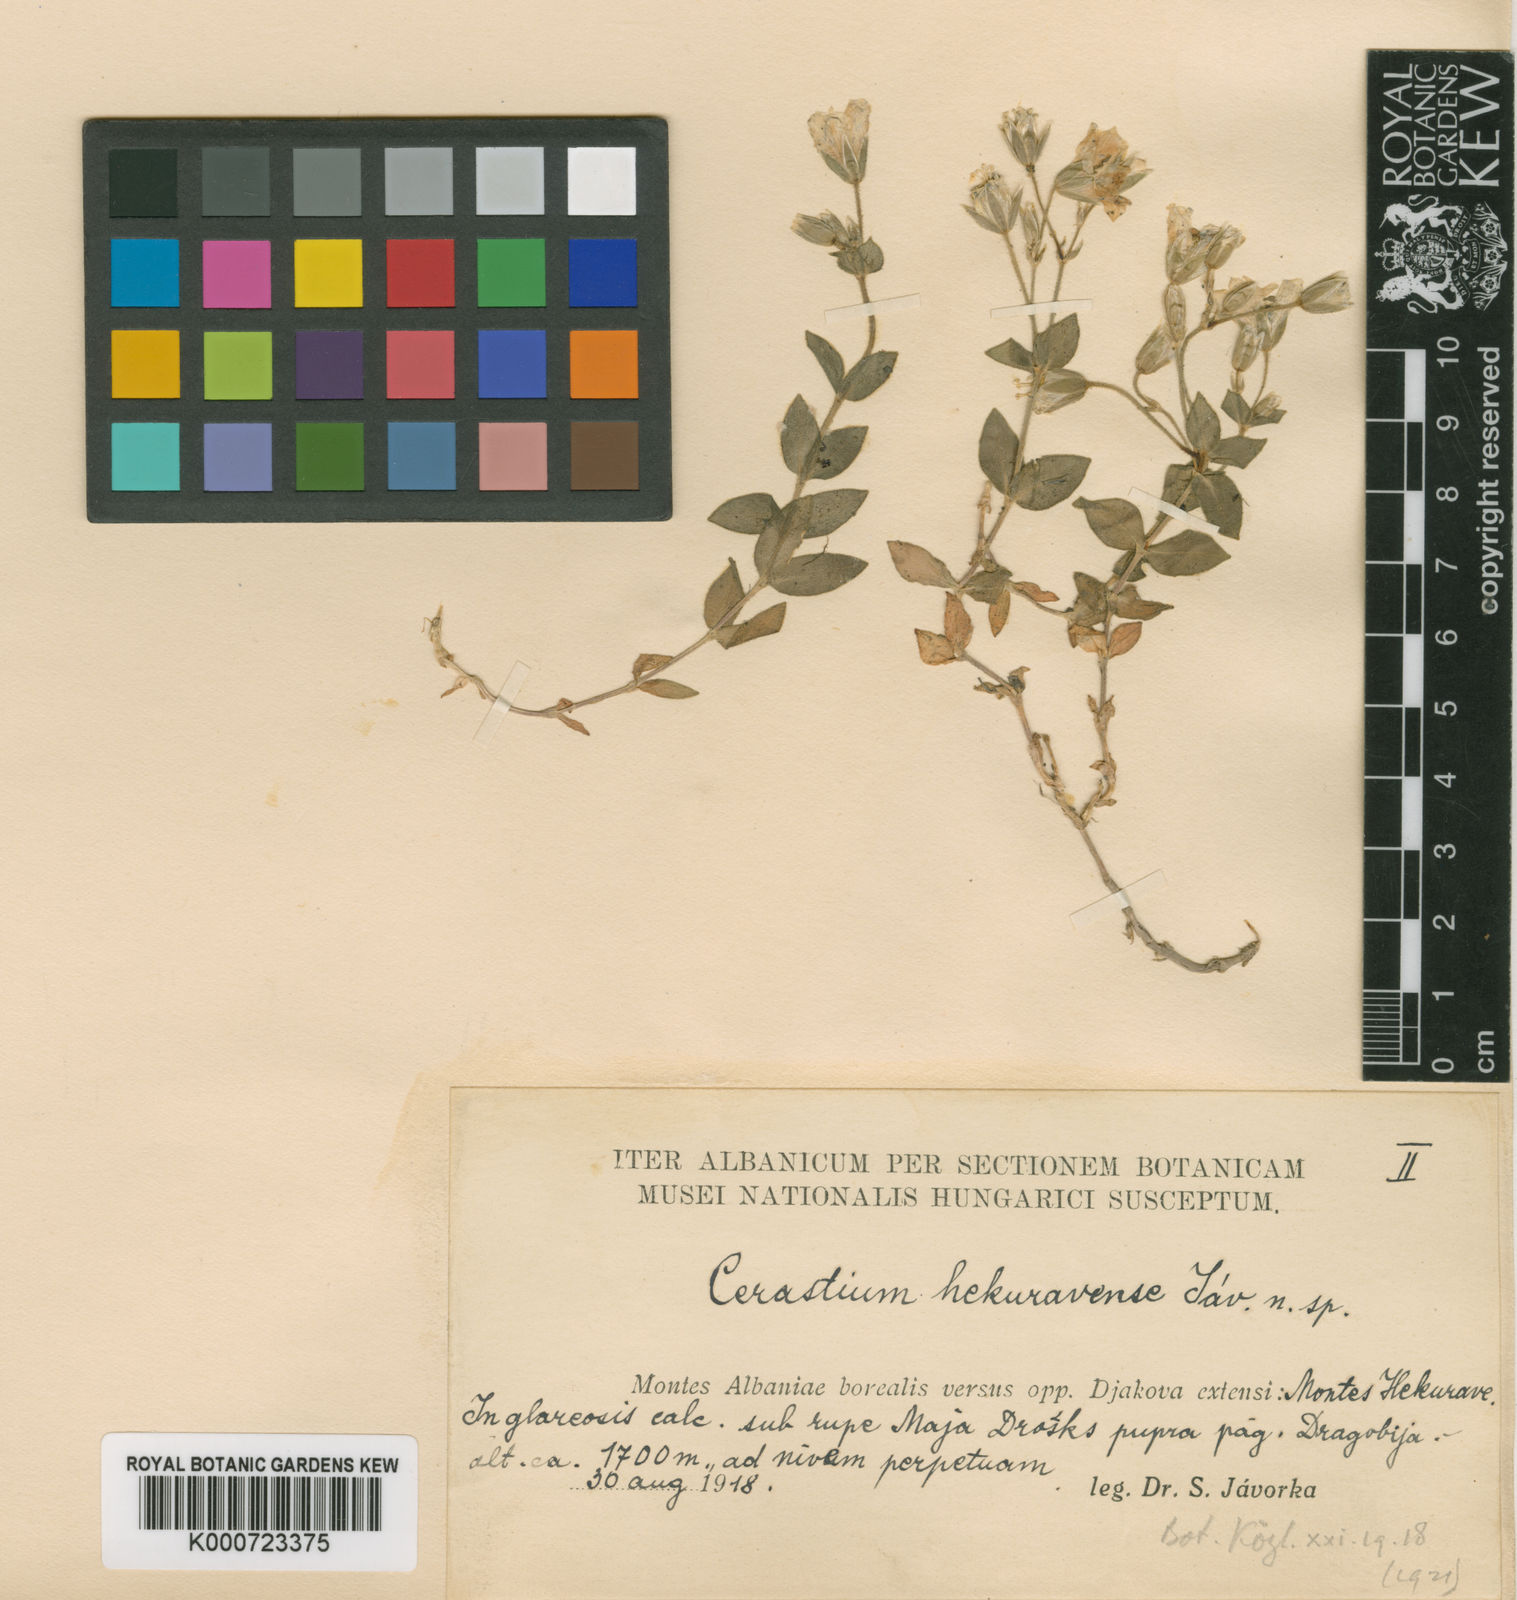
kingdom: Plantae
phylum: Tracheophyta
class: Magnoliopsida
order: Caryophyllales
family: Caryophyllaceae
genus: Cerastium
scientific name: Cerastium dinaricum
